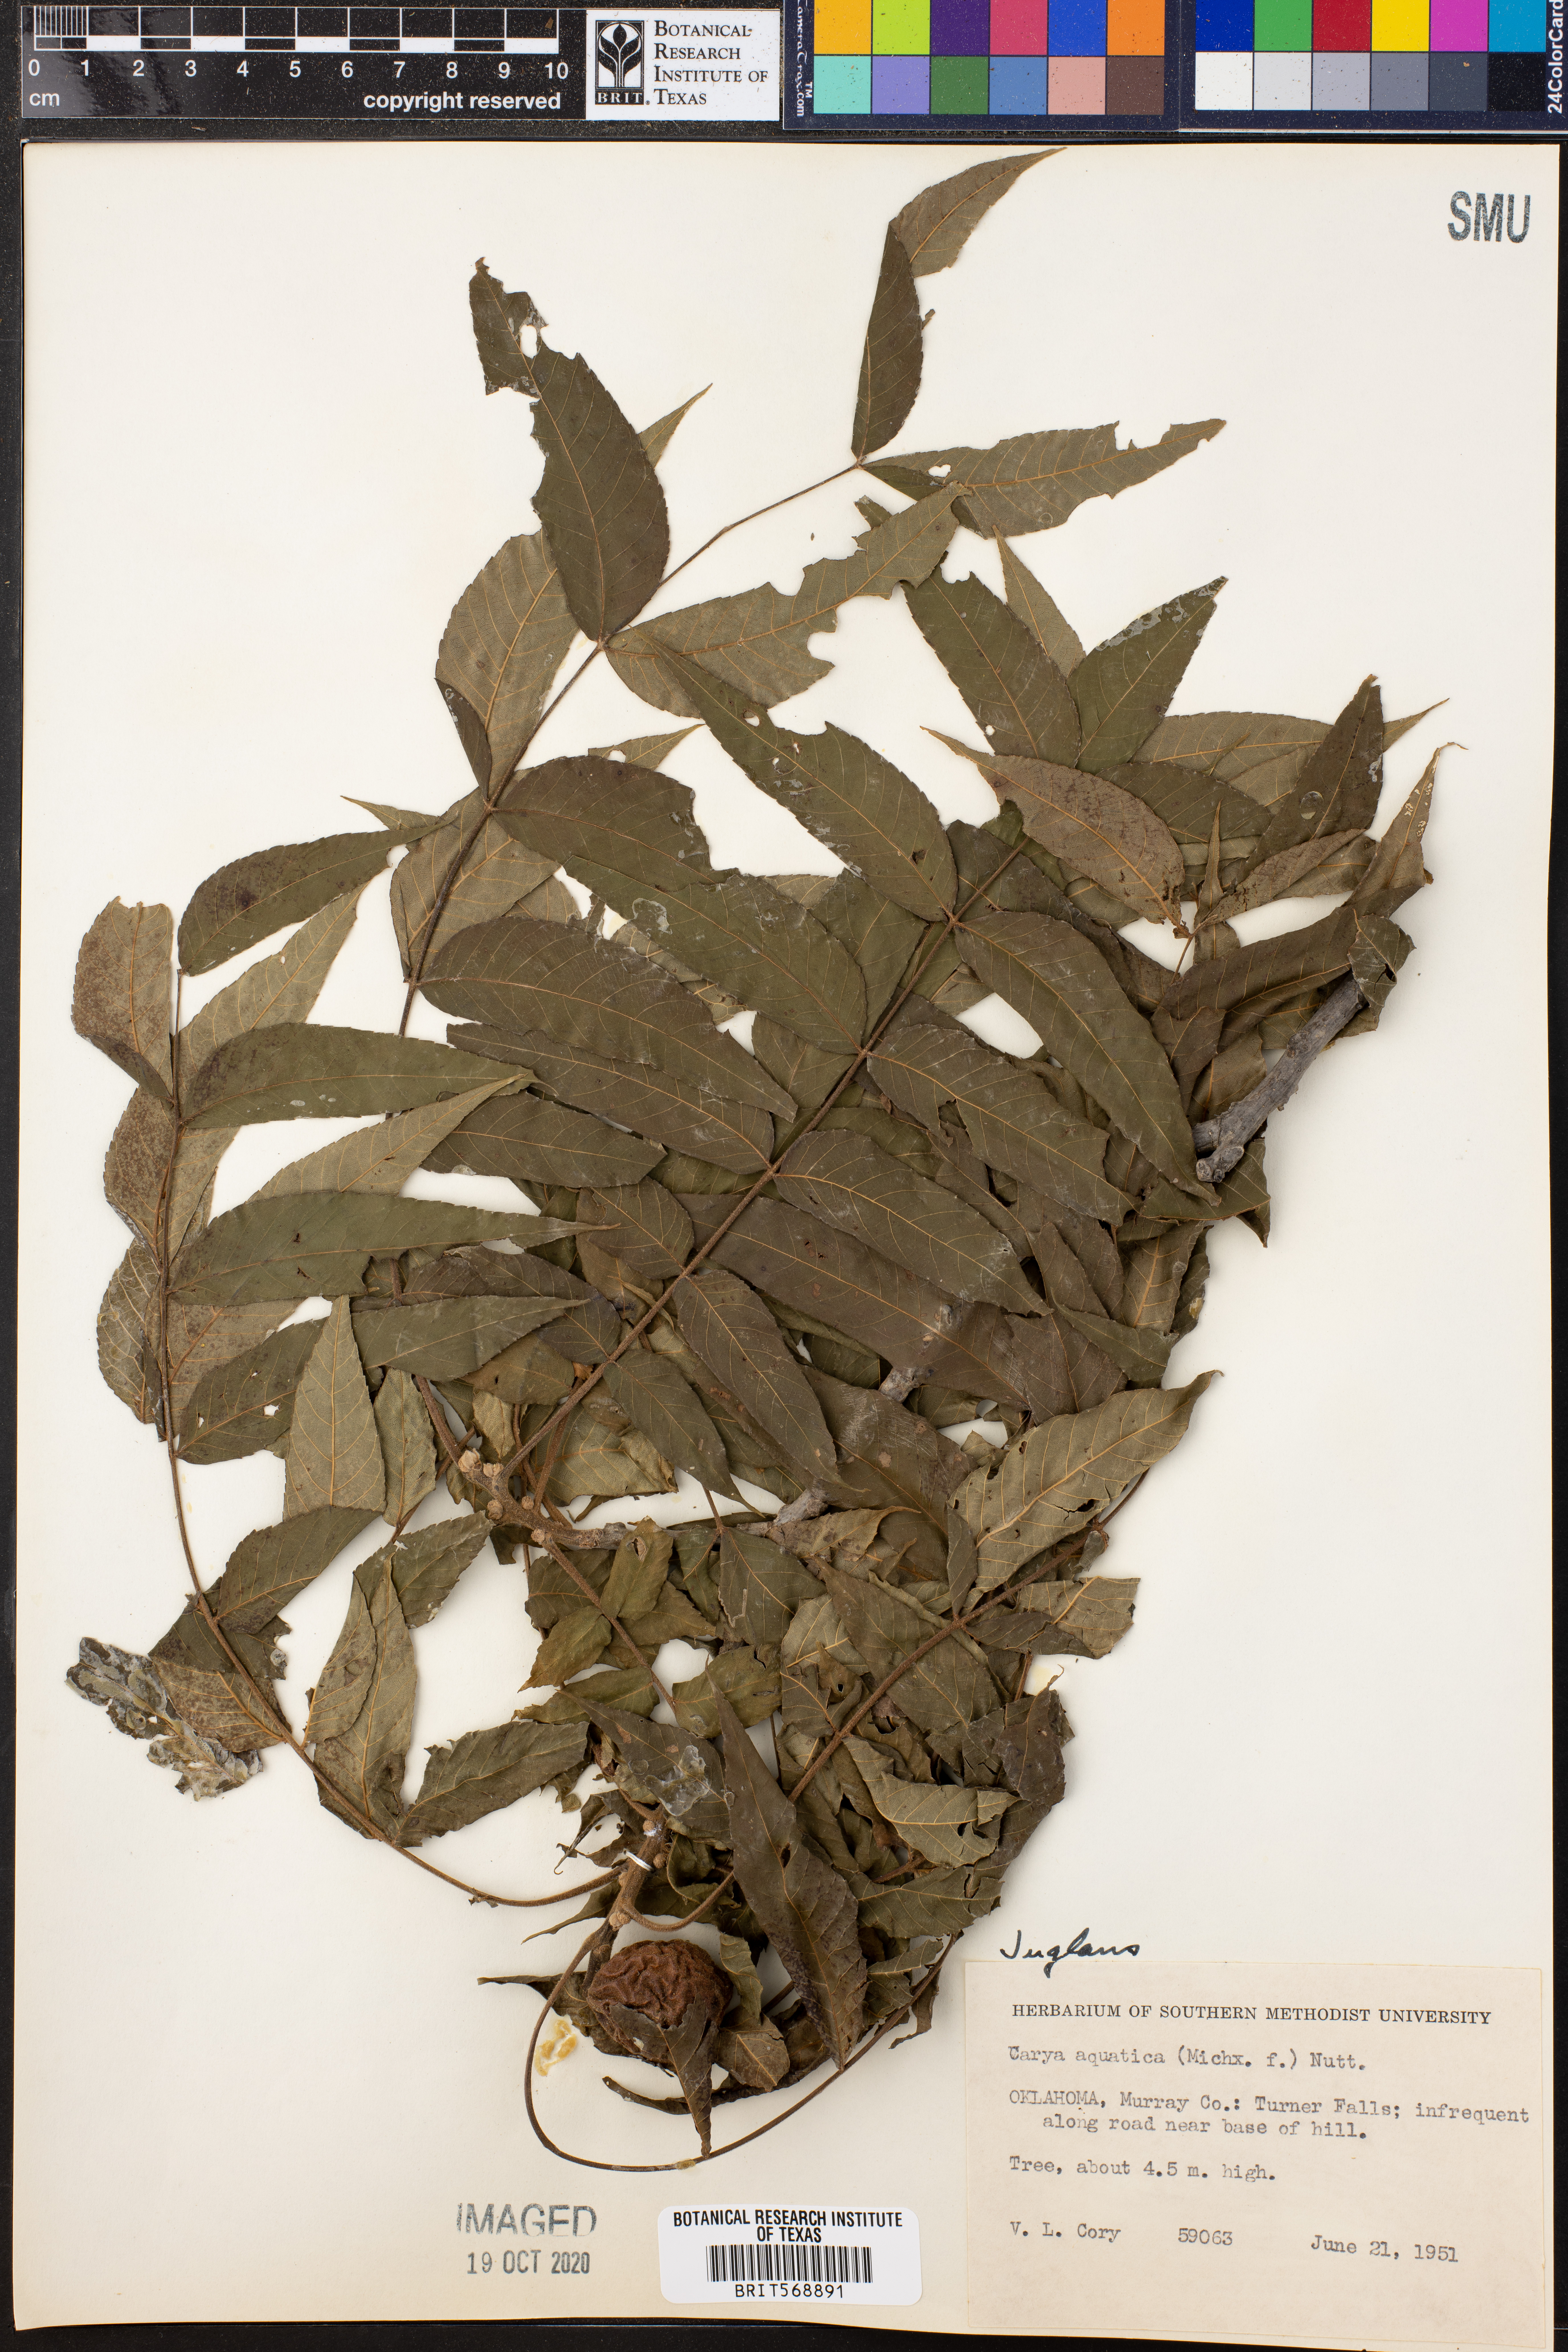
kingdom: Plantae
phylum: Tracheophyta
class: Magnoliopsida
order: Fagales
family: Juglandaceae
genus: Juglans
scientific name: Juglans
